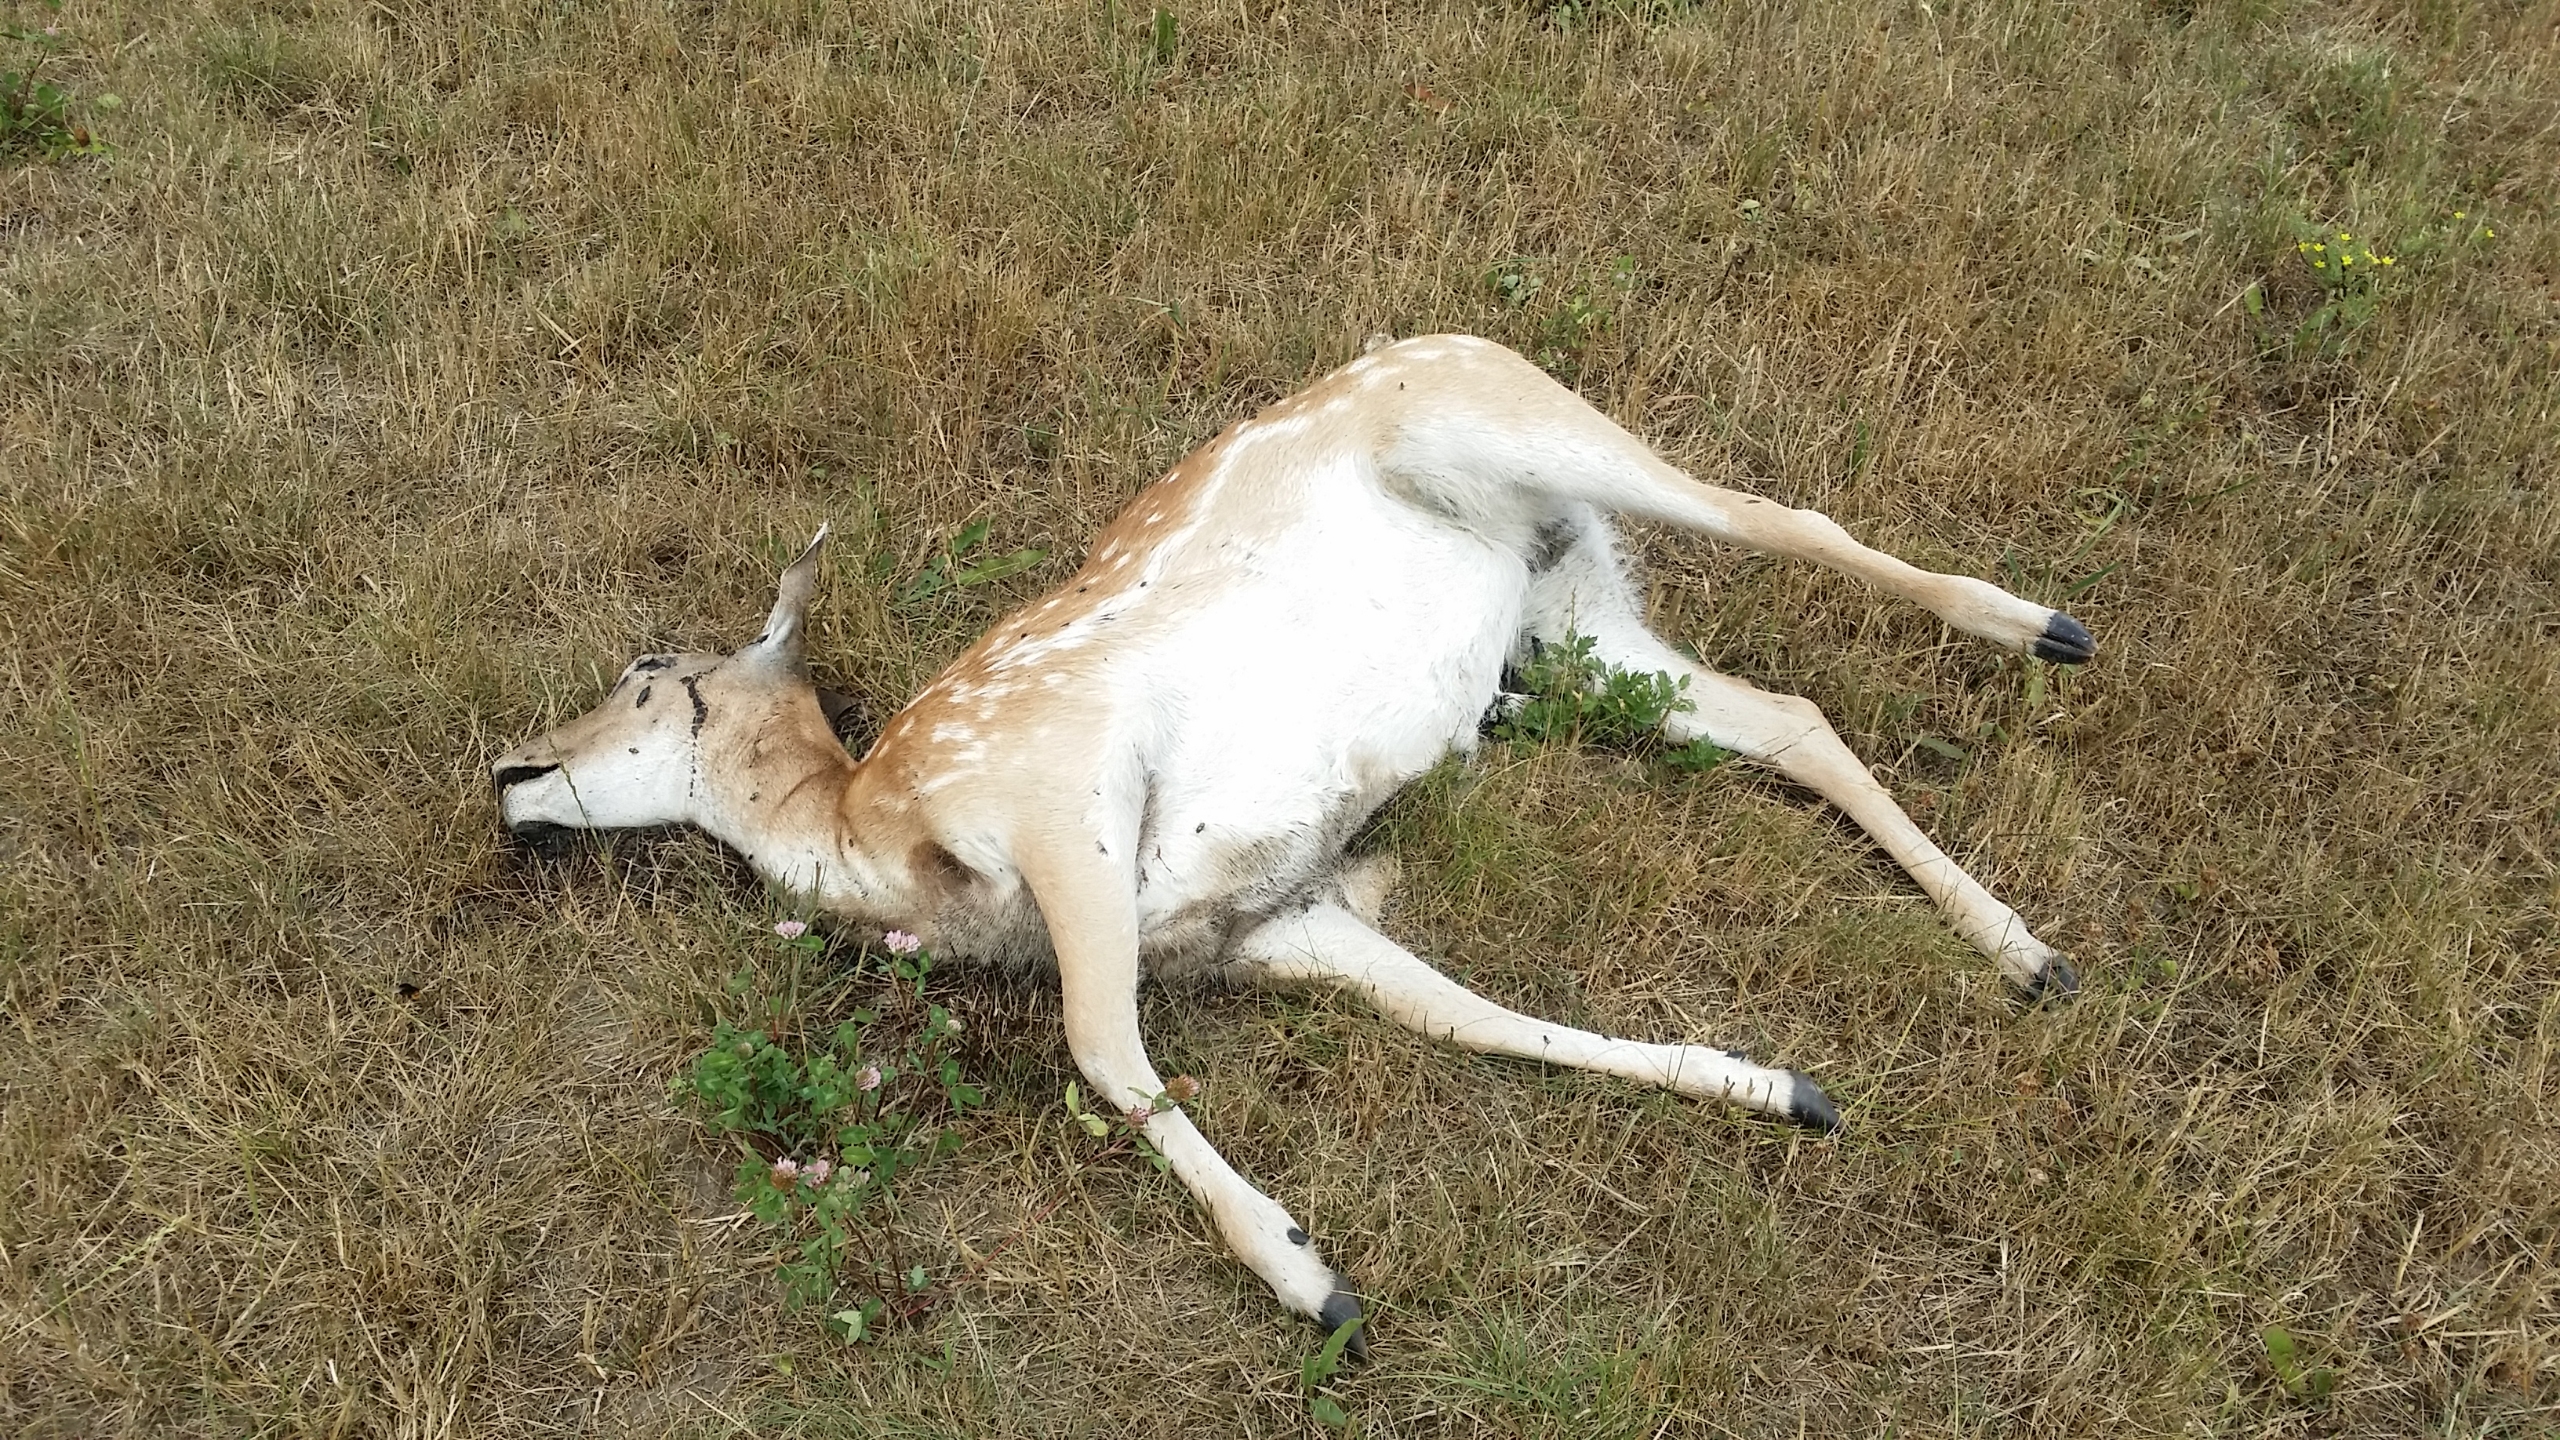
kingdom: Animalia
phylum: Chordata
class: Mammalia
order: Artiodactyla
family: Cervidae
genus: Dama
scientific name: Dama dama
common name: Dådyr
